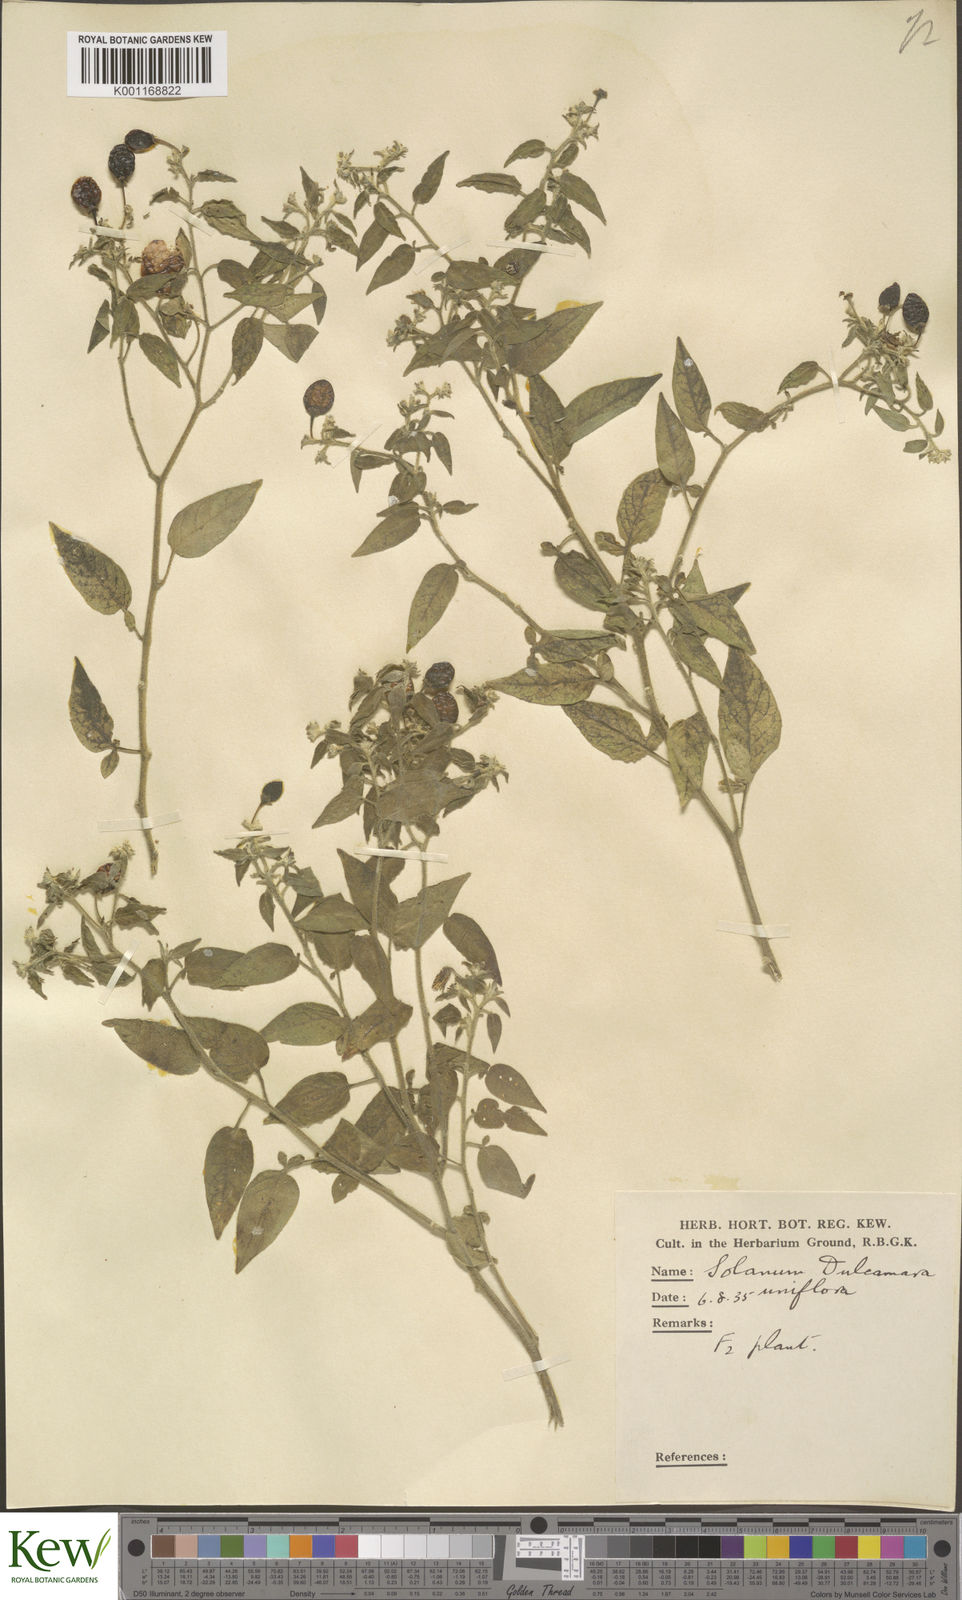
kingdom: Plantae
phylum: Tracheophyta
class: Magnoliopsida
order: Solanales
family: Solanaceae
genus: Solanum
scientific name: Solanum dulcamara
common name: Climbing nightshade
